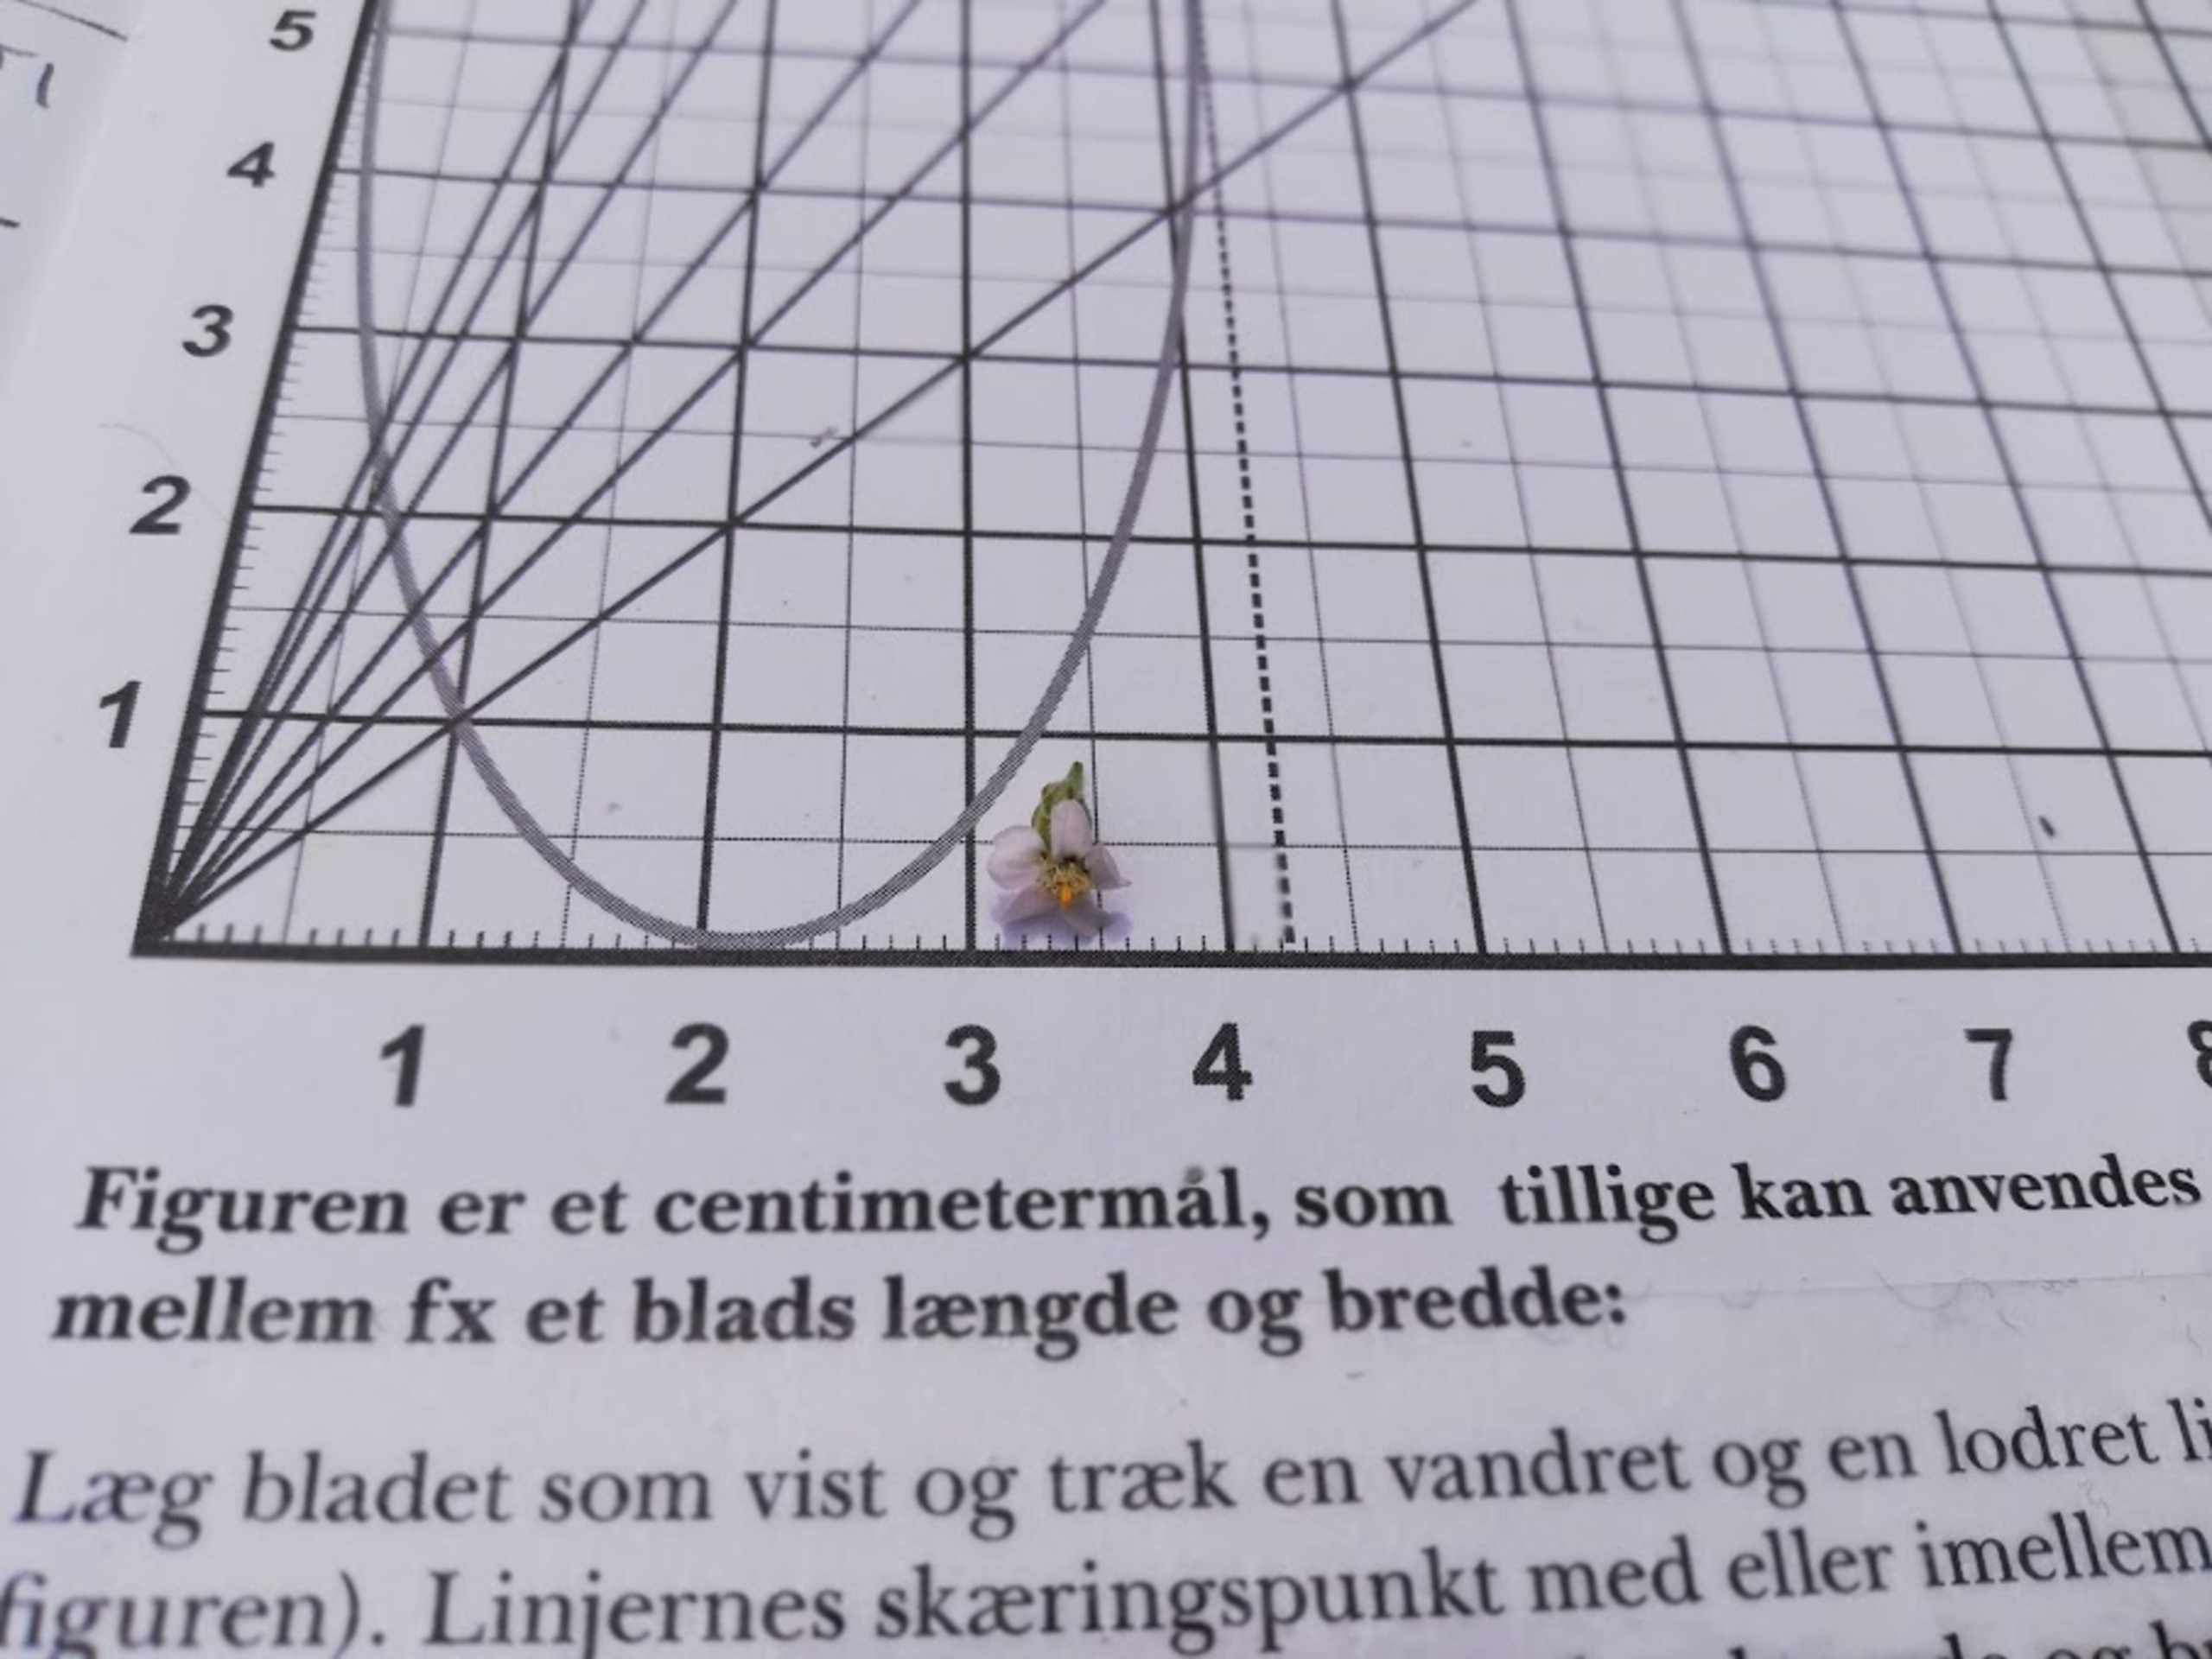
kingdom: Plantae
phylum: Tracheophyta
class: Magnoliopsida
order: Asterales
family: Asteraceae
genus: Achillea
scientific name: Achillea millefolium
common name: Almindelig røllike
